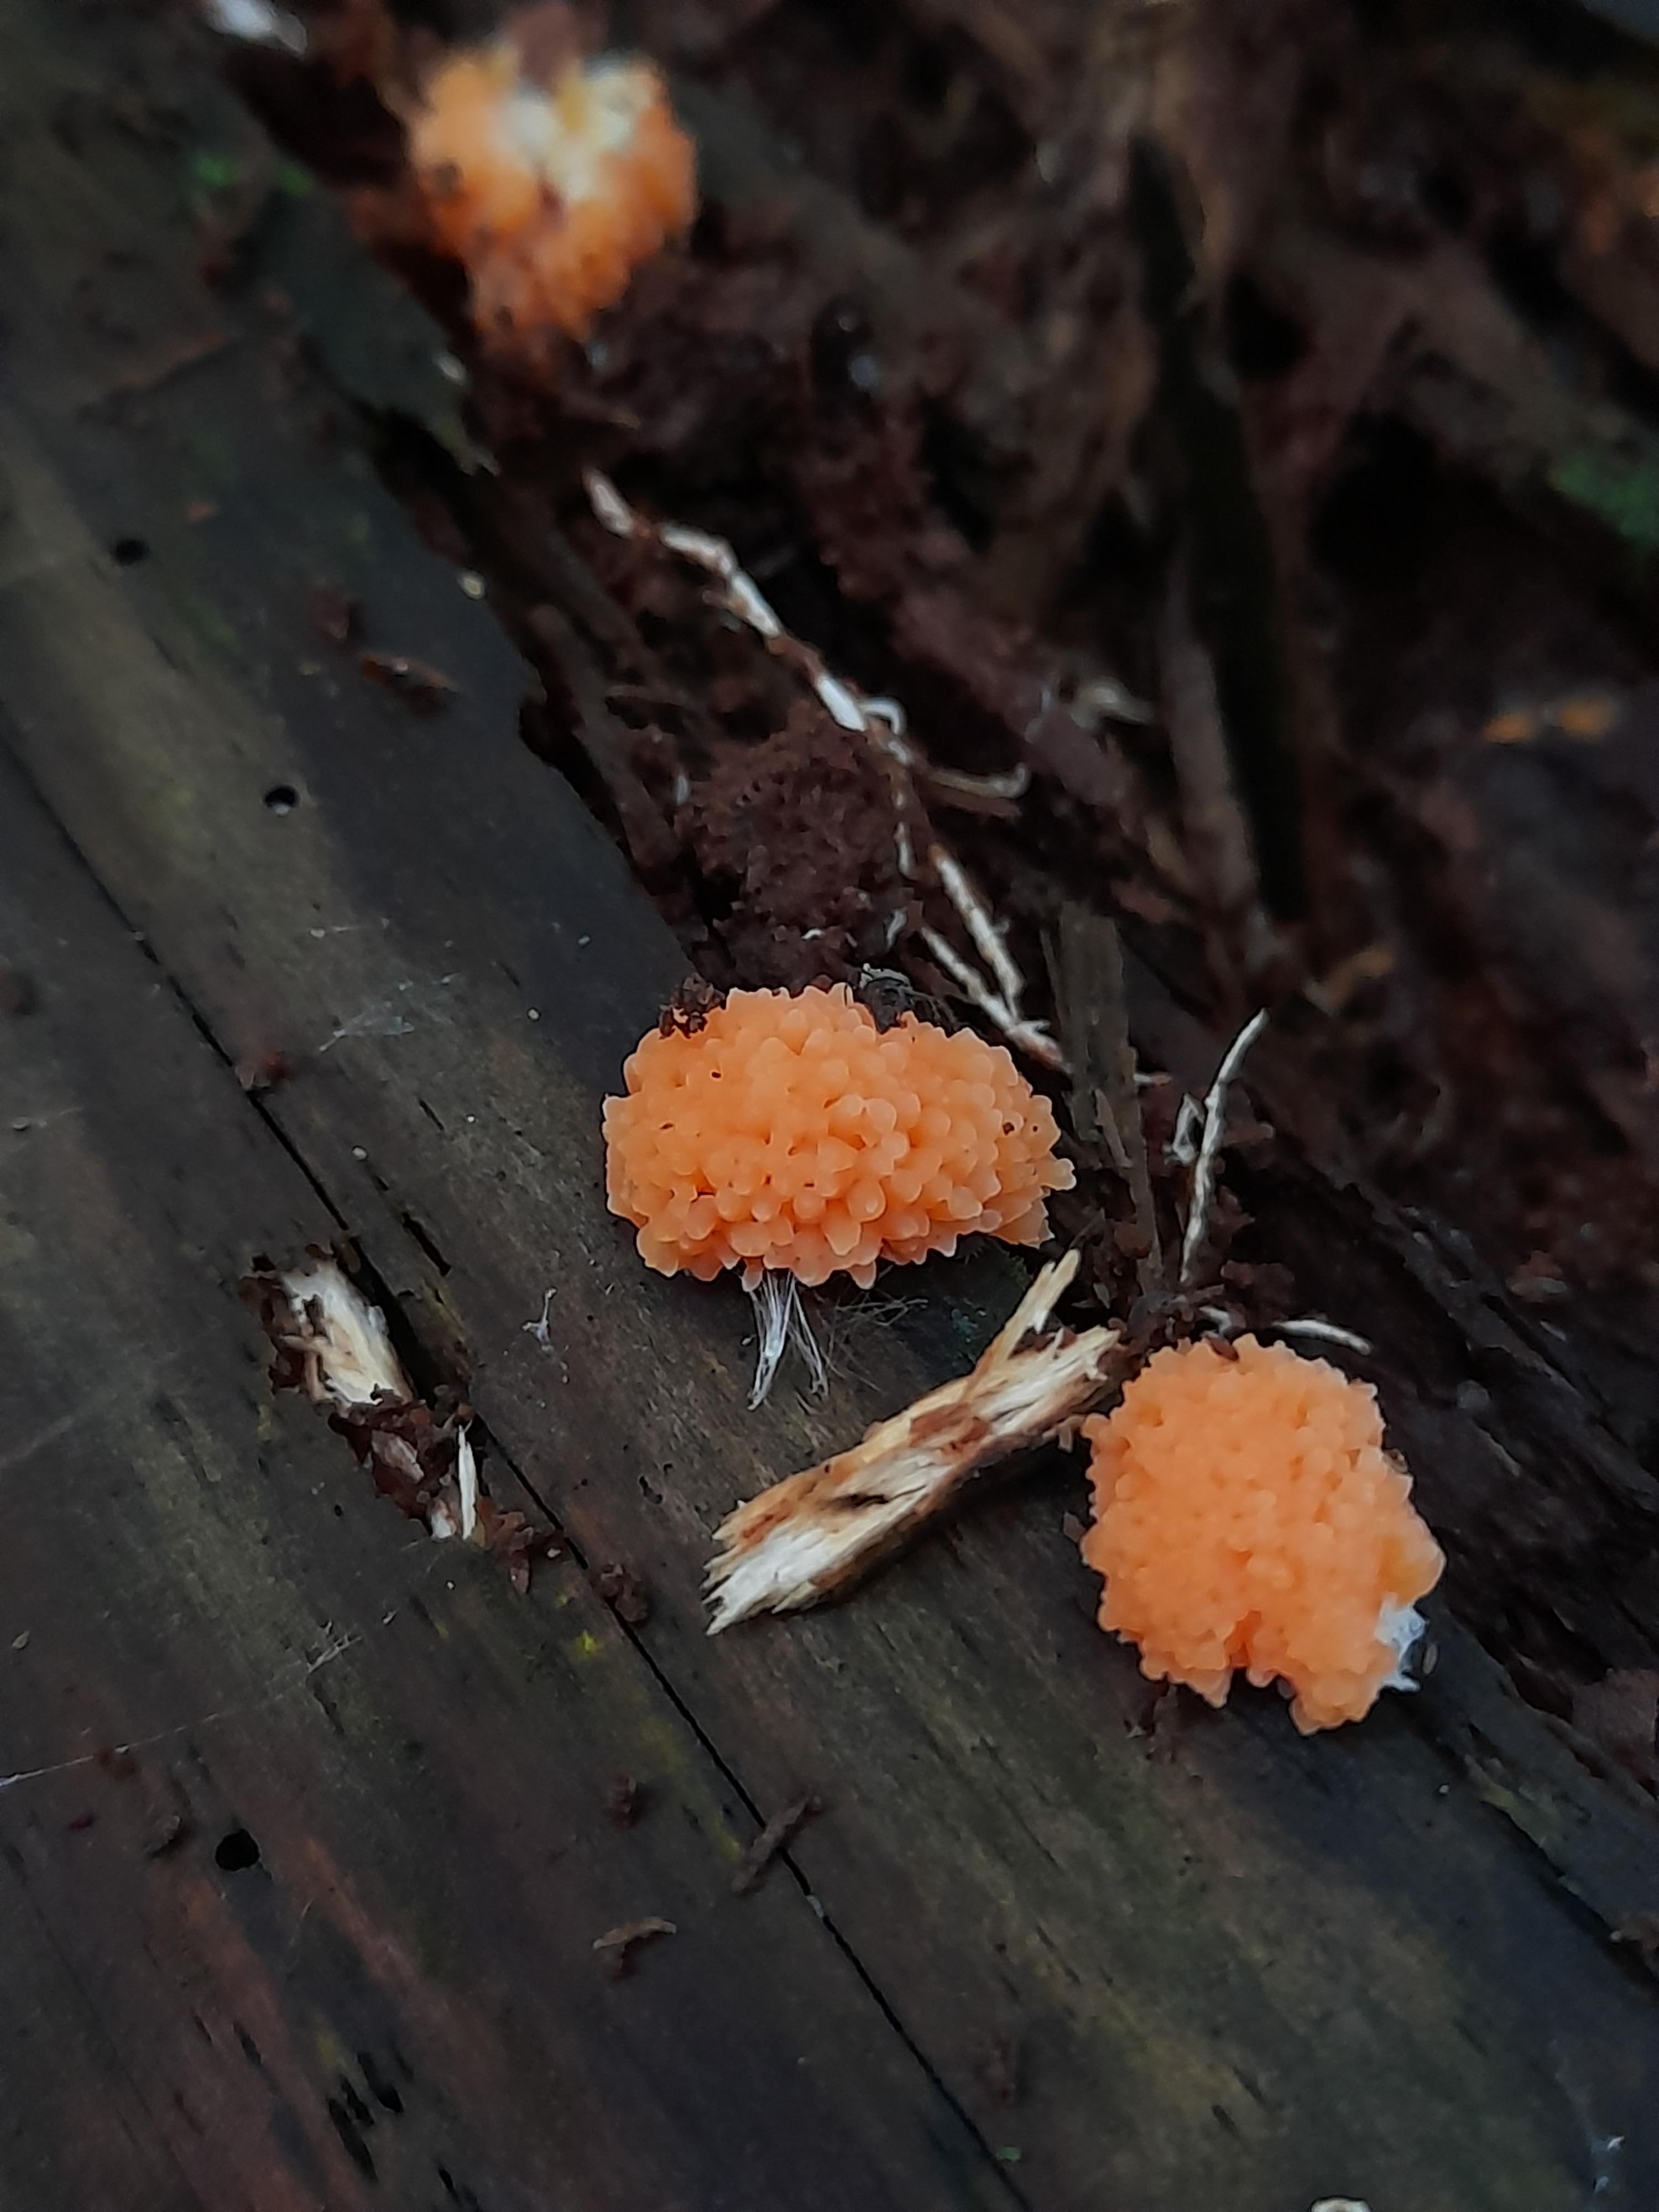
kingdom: Protozoa
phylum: Mycetozoa
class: Myxomycetes
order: Cribrariales
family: Tubiferaceae
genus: Tubifera
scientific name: Tubifera ferruginosa
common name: kanel-støvrør
